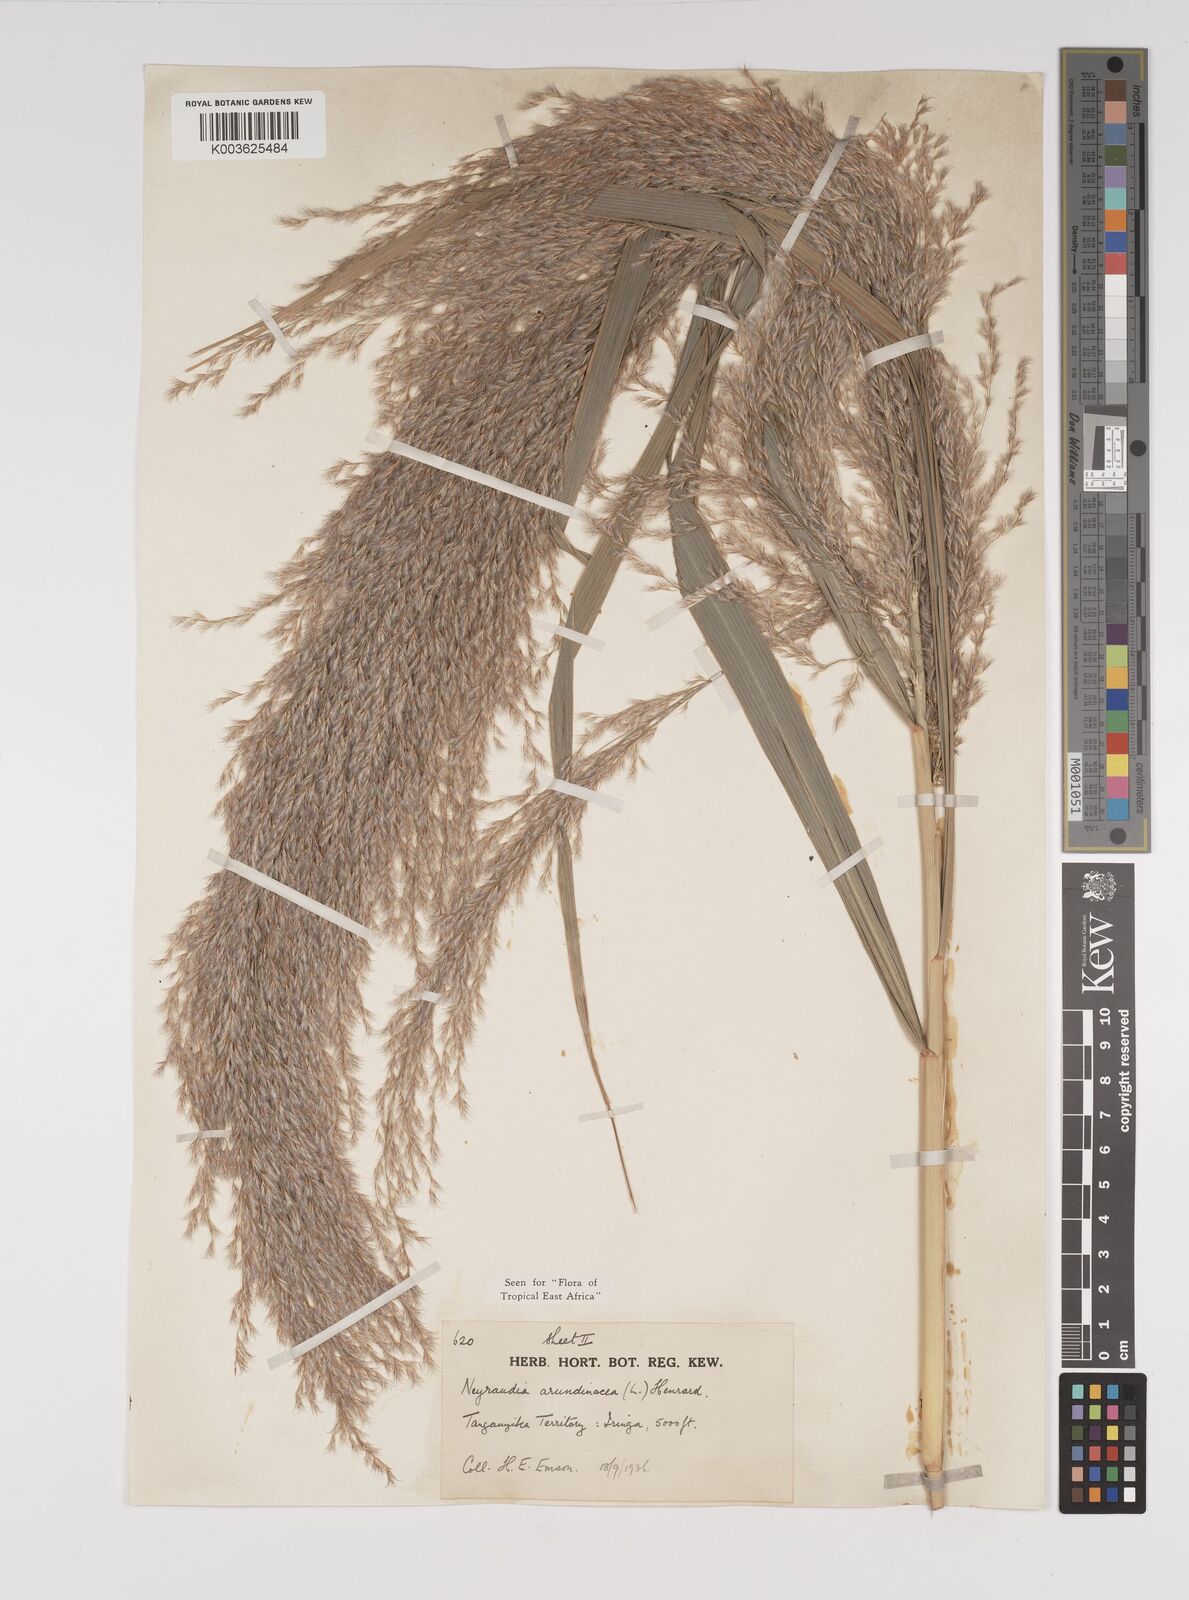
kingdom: Plantae
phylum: Tracheophyta
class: Liliopsida
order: Poales
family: Poaceae
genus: Neyraudia
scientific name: Neyraudia arundinacea
